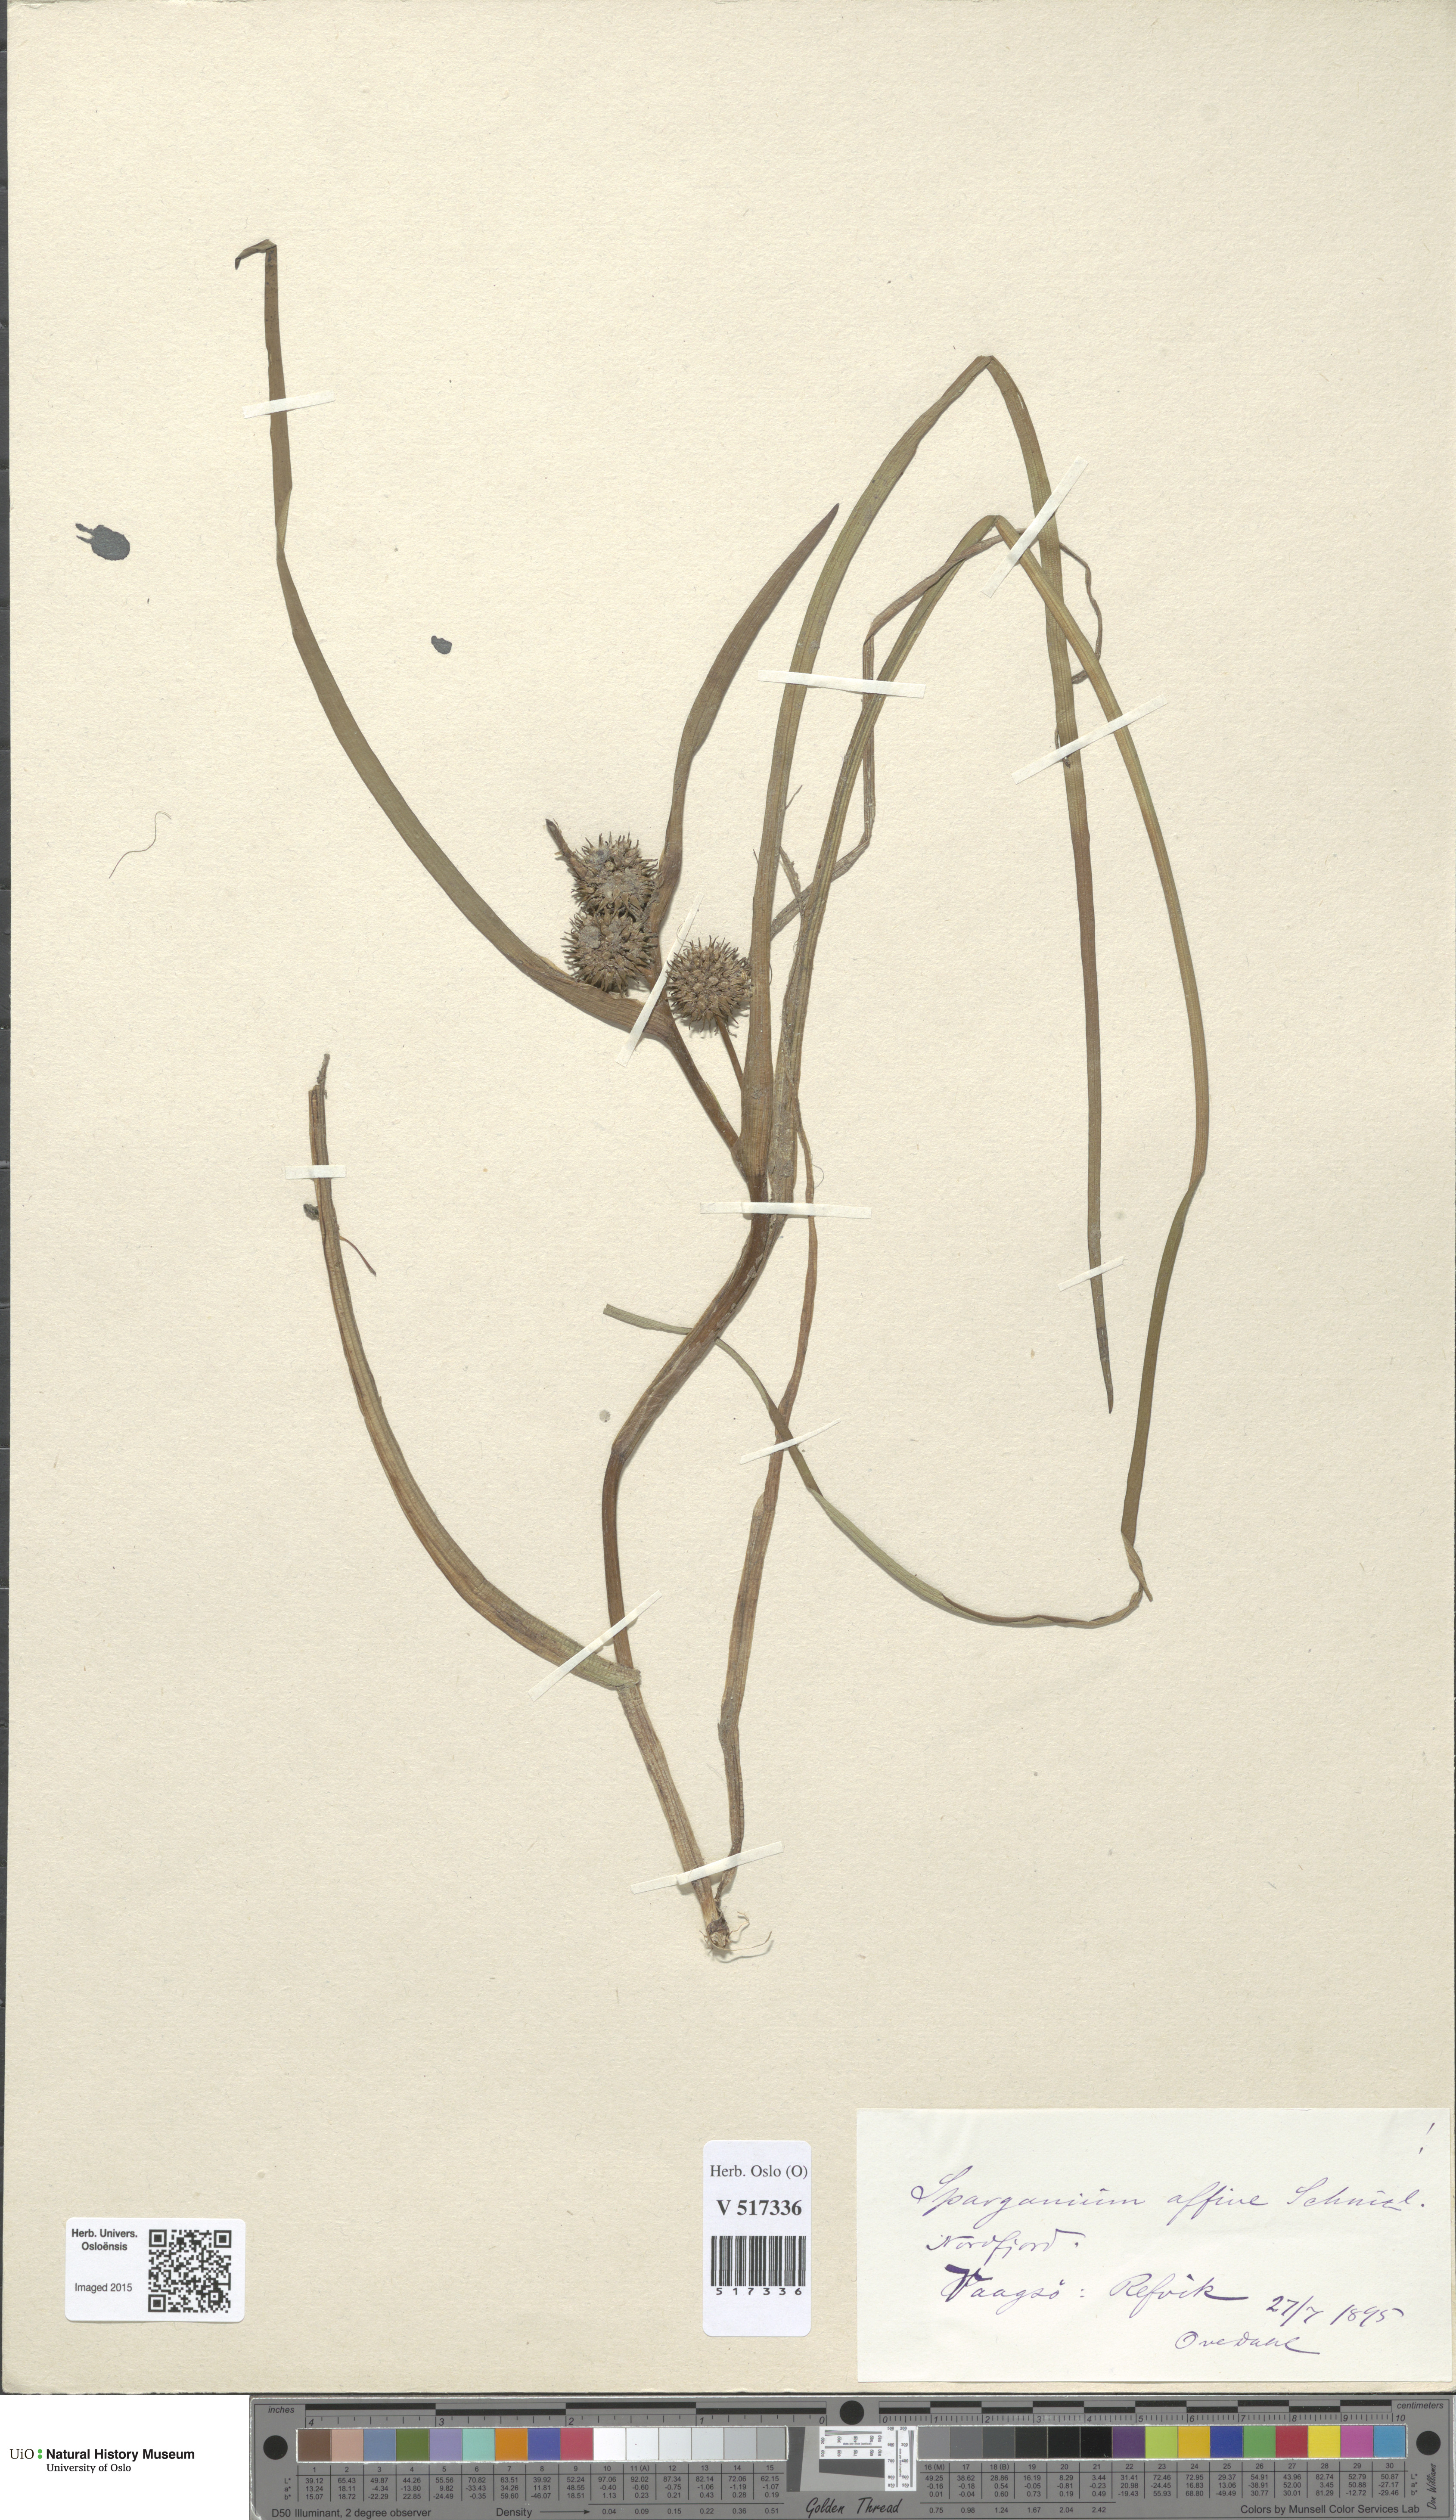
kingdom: Plantae
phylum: Tracheophyta
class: Liliopsida
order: Poales
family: Typhaceae
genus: Sparganium
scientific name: Sparganium angustifolium
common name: Floating bur-reed
